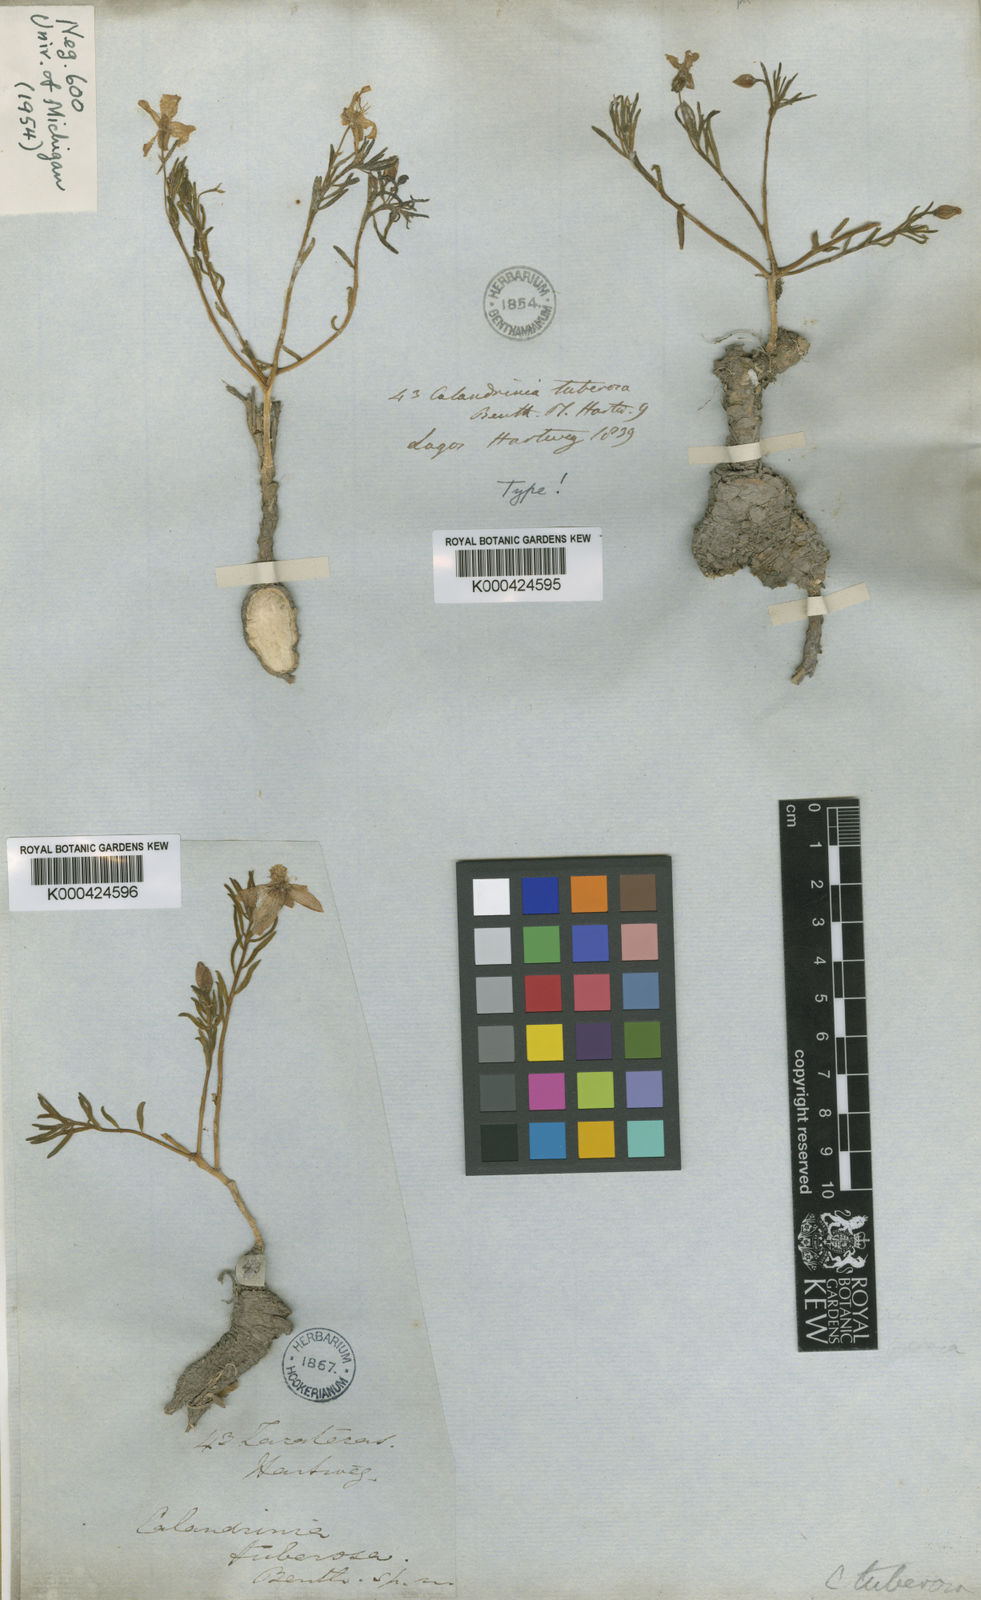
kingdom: Plantae
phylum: Tracheophyta
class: Magnoliopsida
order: Caryophyllales
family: Talinaceae
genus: Talinum
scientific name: Talinum lineare
